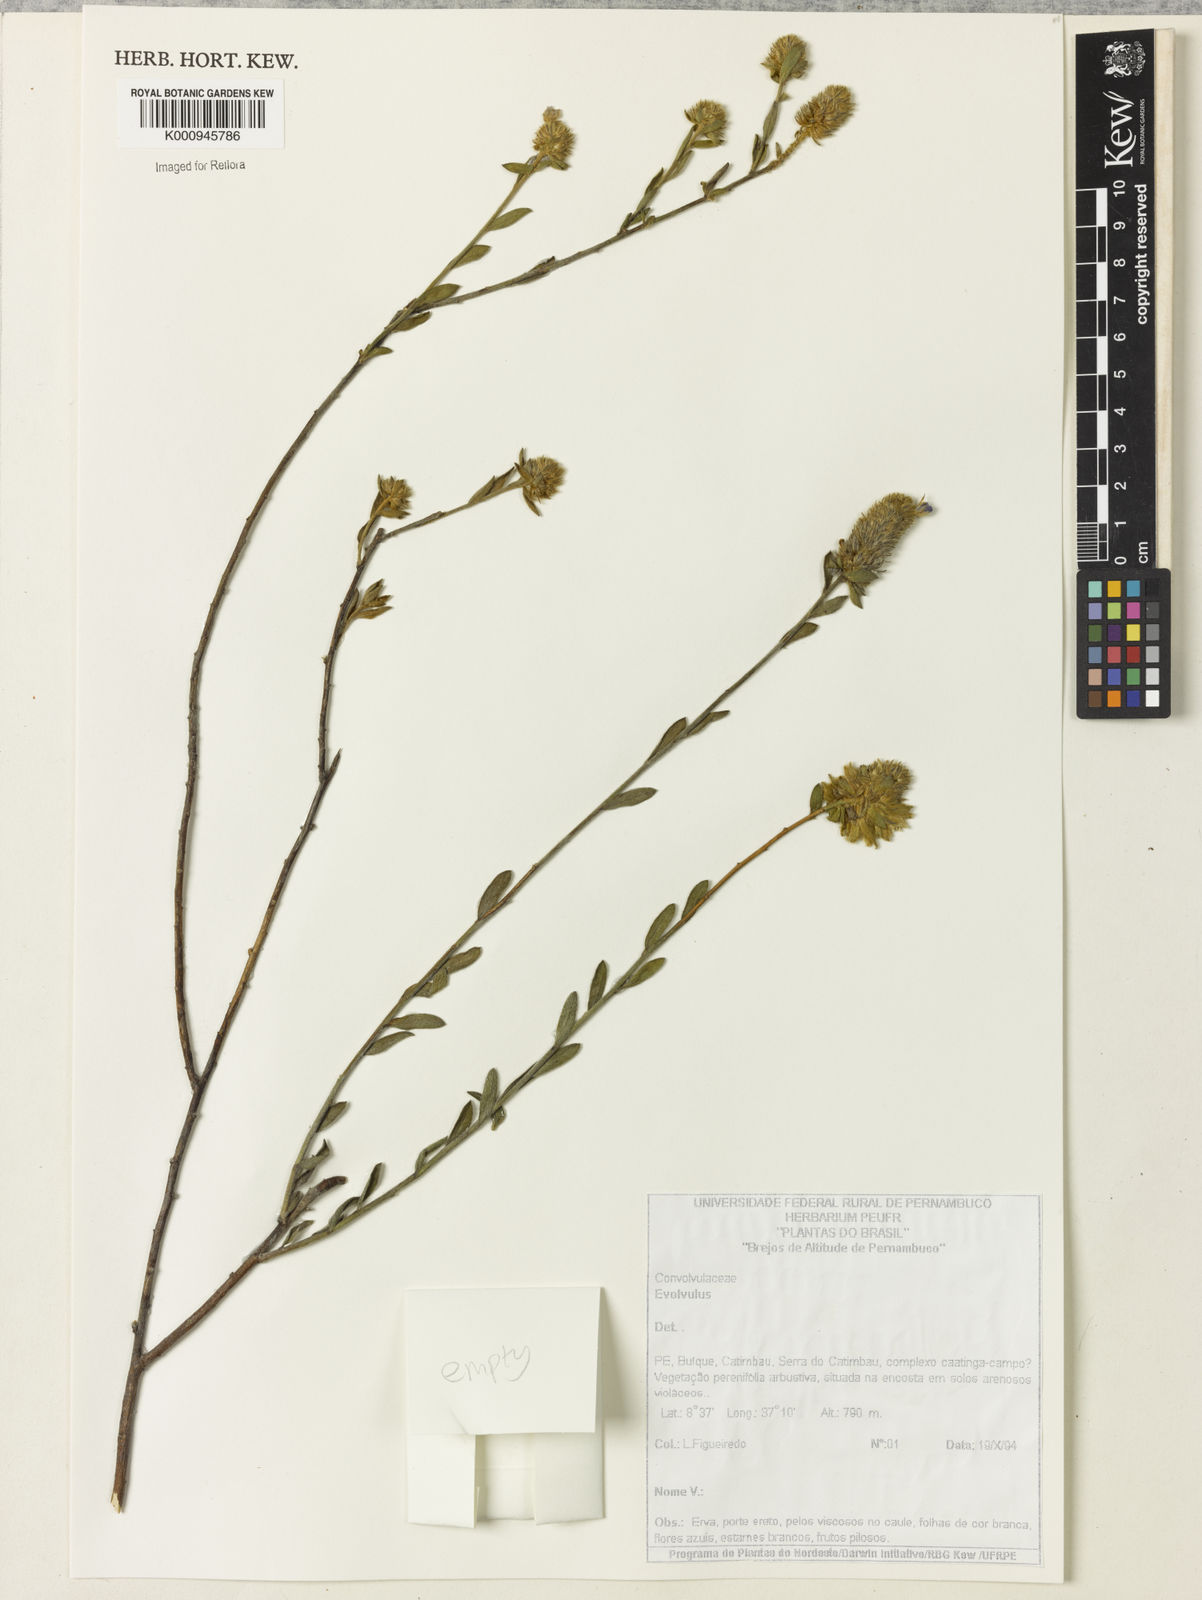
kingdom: Plantae
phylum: Tracheophyta
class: Magnoliopsida
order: Solanales
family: Convolvulaceae
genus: Evolvulus
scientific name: Evolvulus
